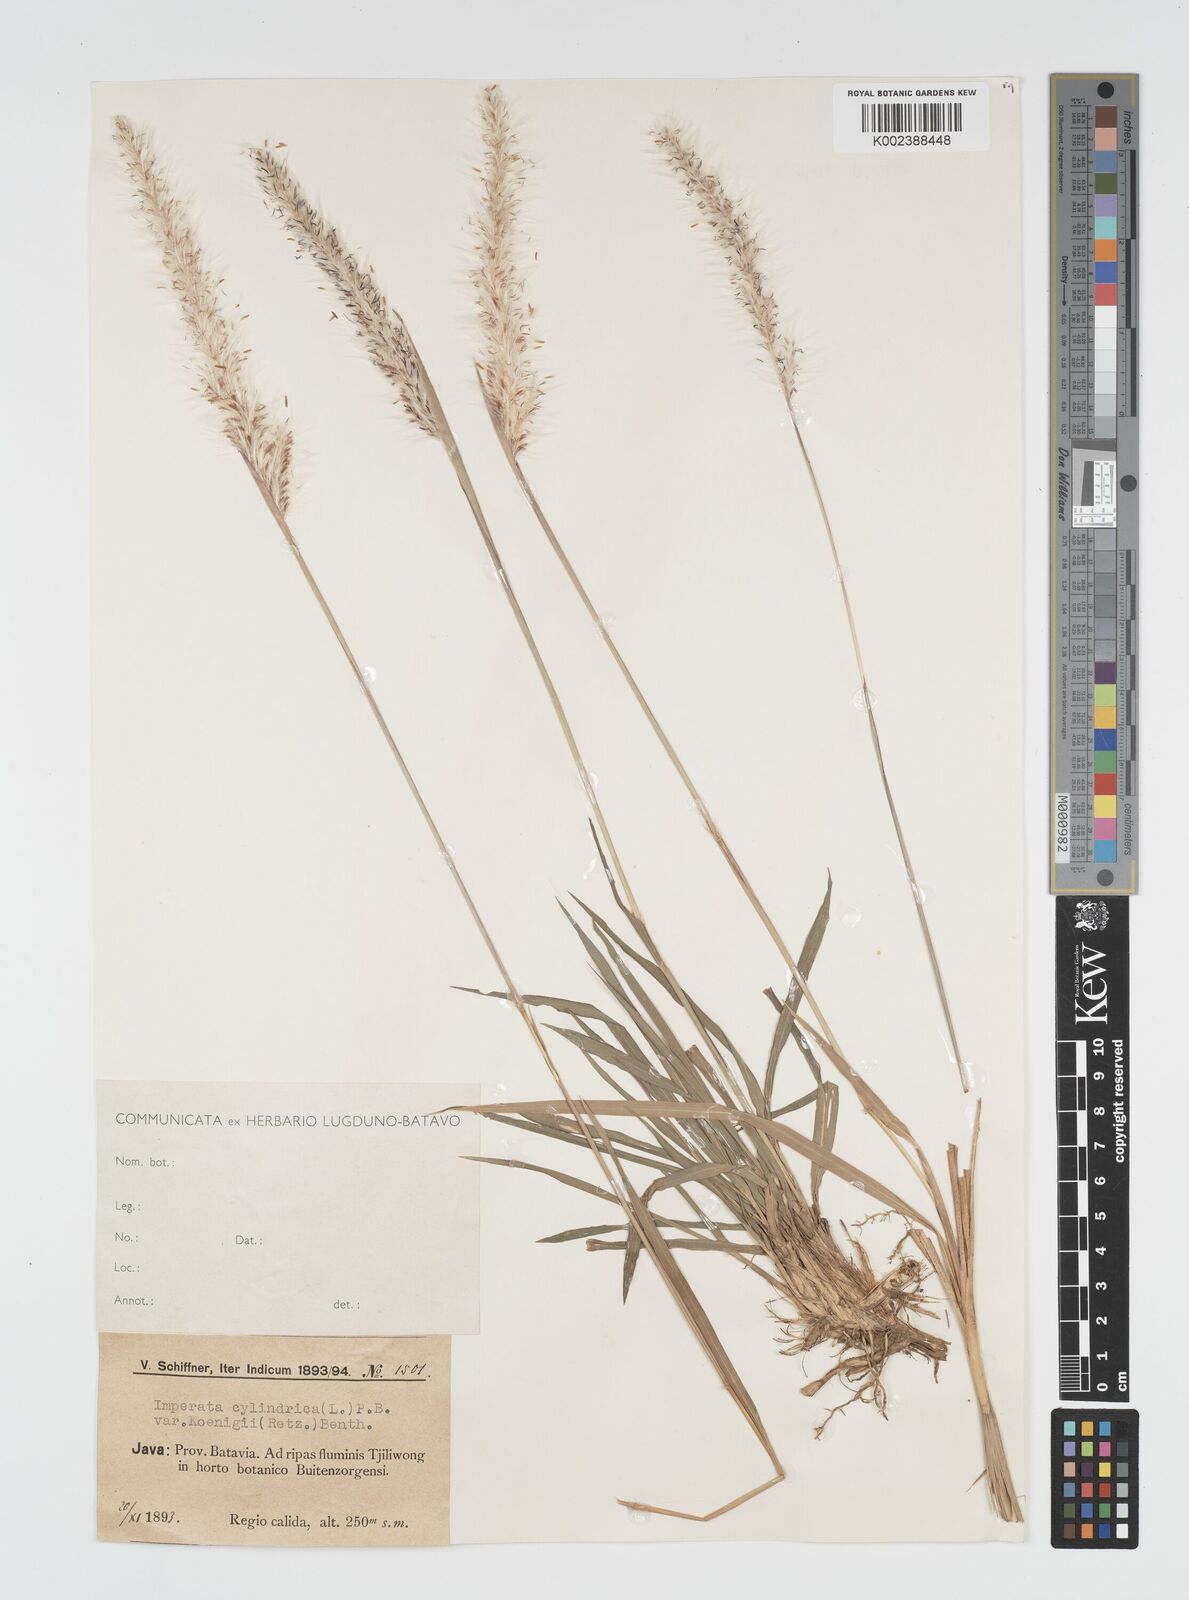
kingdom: Plantae
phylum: Tracheophyta
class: Liliopsida
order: Poales
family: Poaceae
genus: Imperata
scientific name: Imperata
